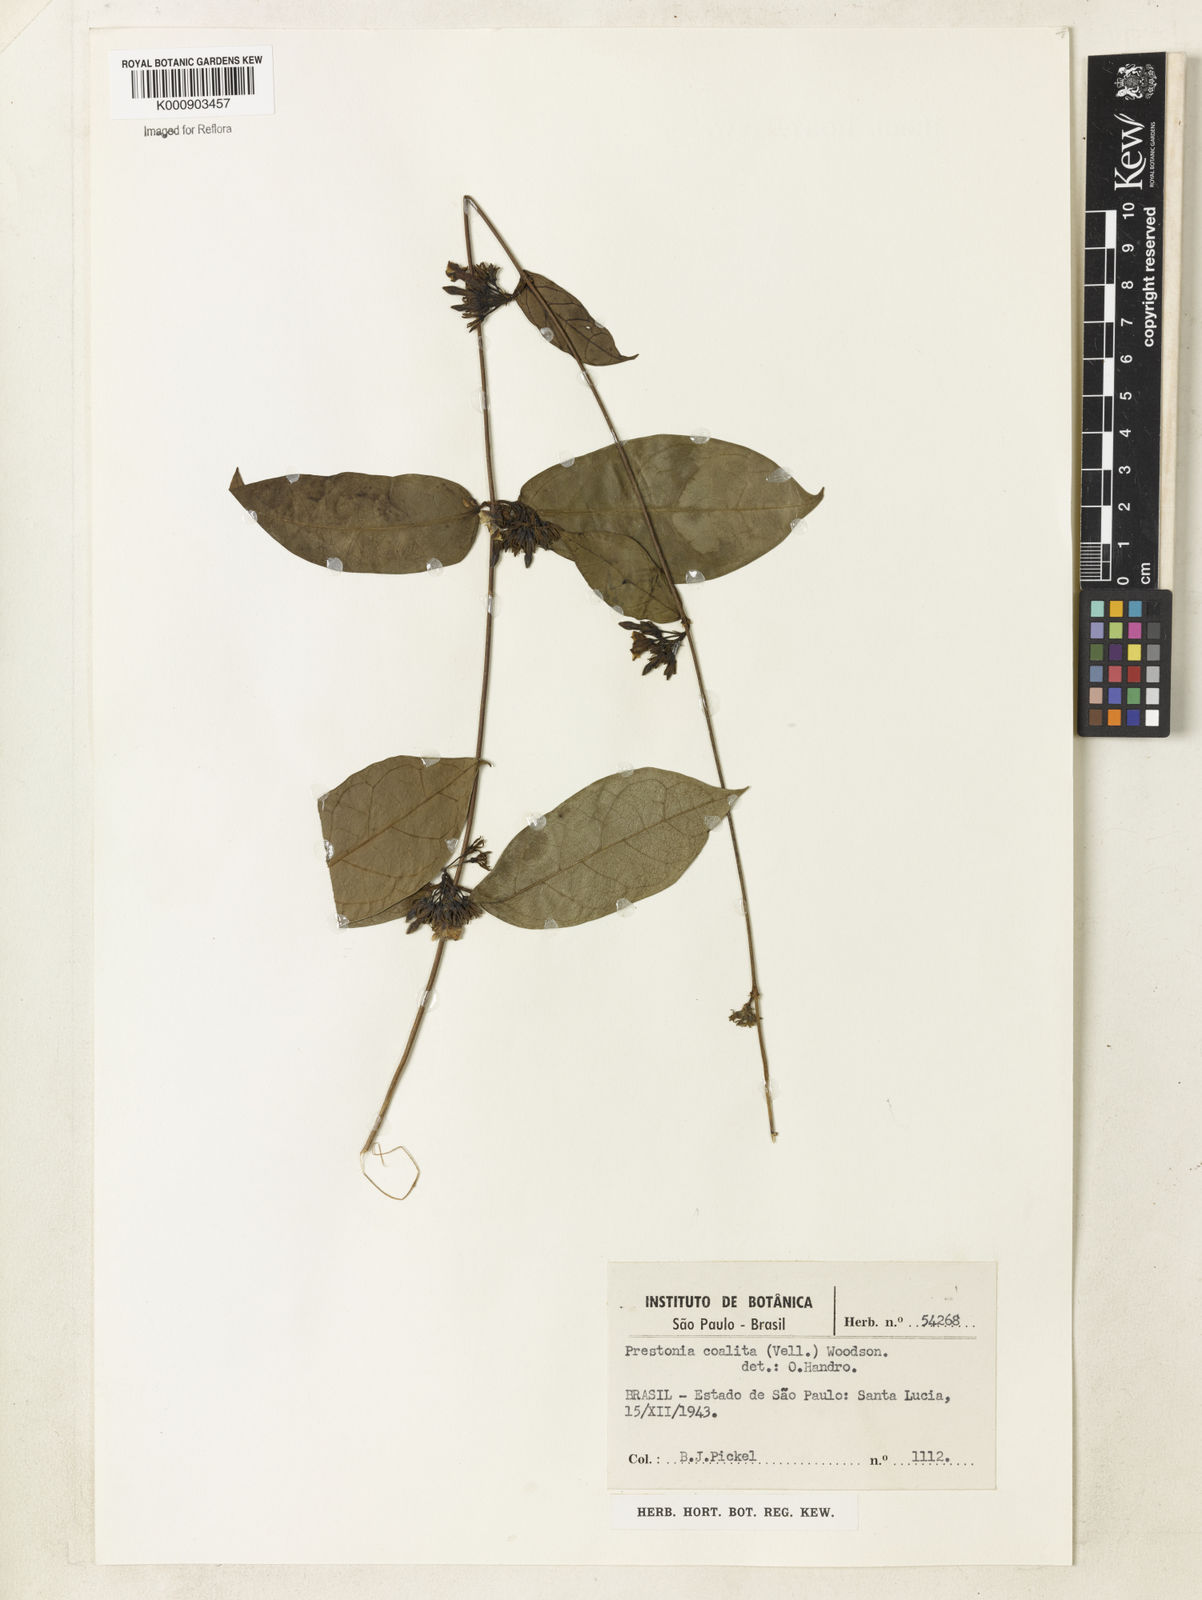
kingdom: Plantae
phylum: Tracheophyta
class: Magnoliopsida
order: Gentianales
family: Apocynaceae
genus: Prestonia
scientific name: Prestonia coalita
